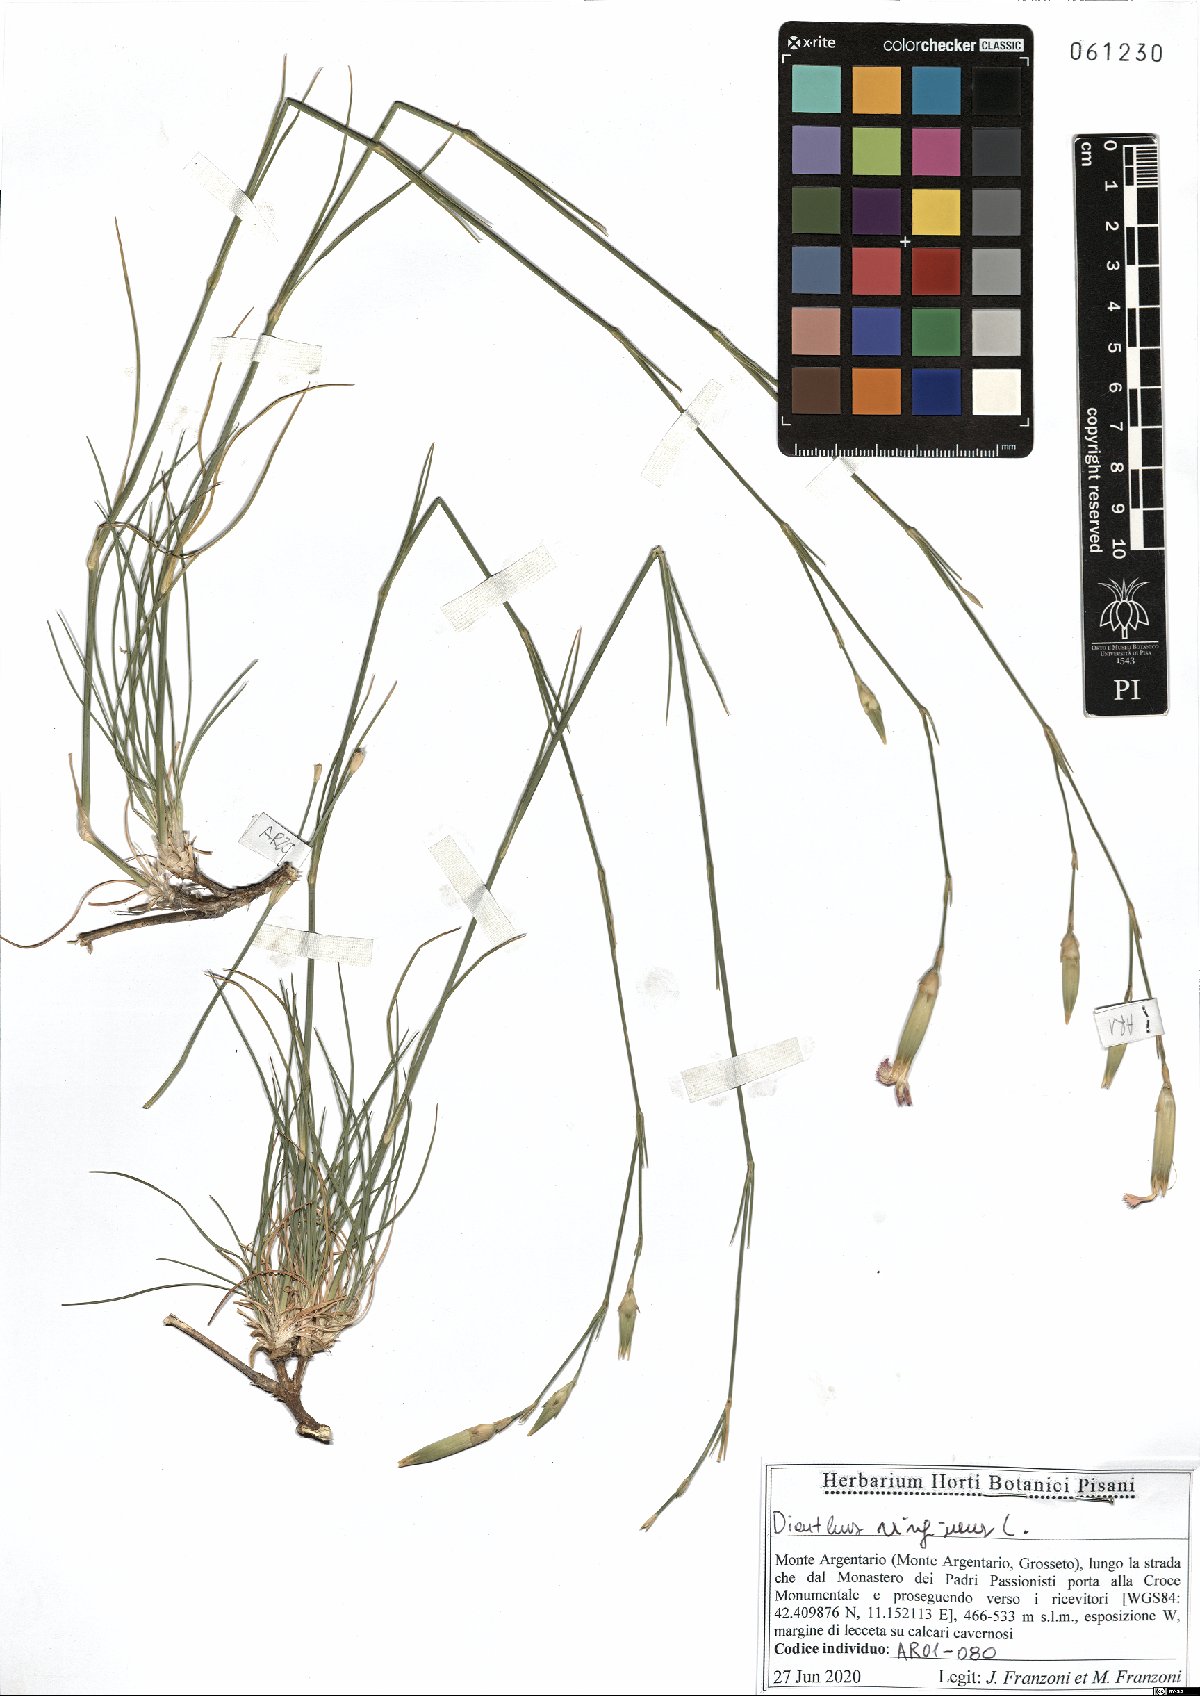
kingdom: Plantae
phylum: Tracheophyta
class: Magnoliopsida
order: Caryophyllales
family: Caryophyllaceae
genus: Dianthus
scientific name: Dianthus virgineus
